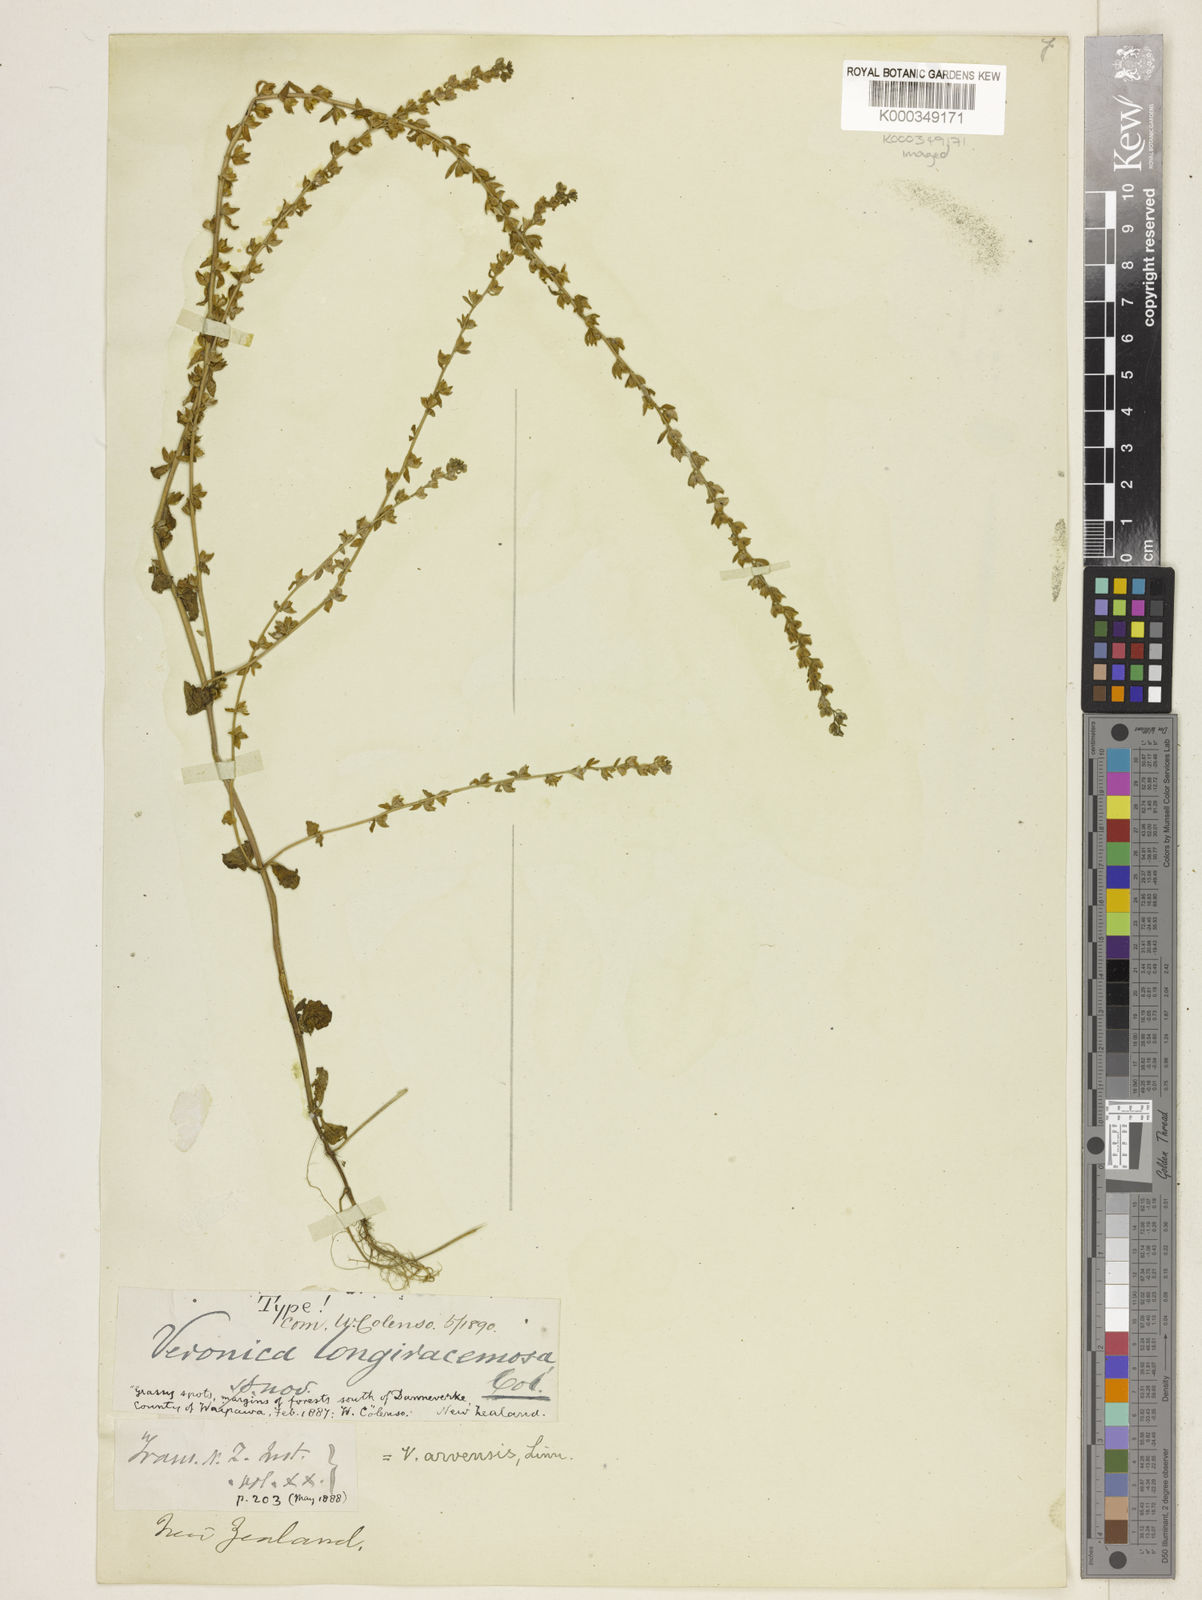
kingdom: Plantae
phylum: Tracheophyta
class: Magnoliopsida
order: Lamiales
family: Plantaginaceae
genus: Veronica
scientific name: Veronica arvensis
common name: Corn speedwell
